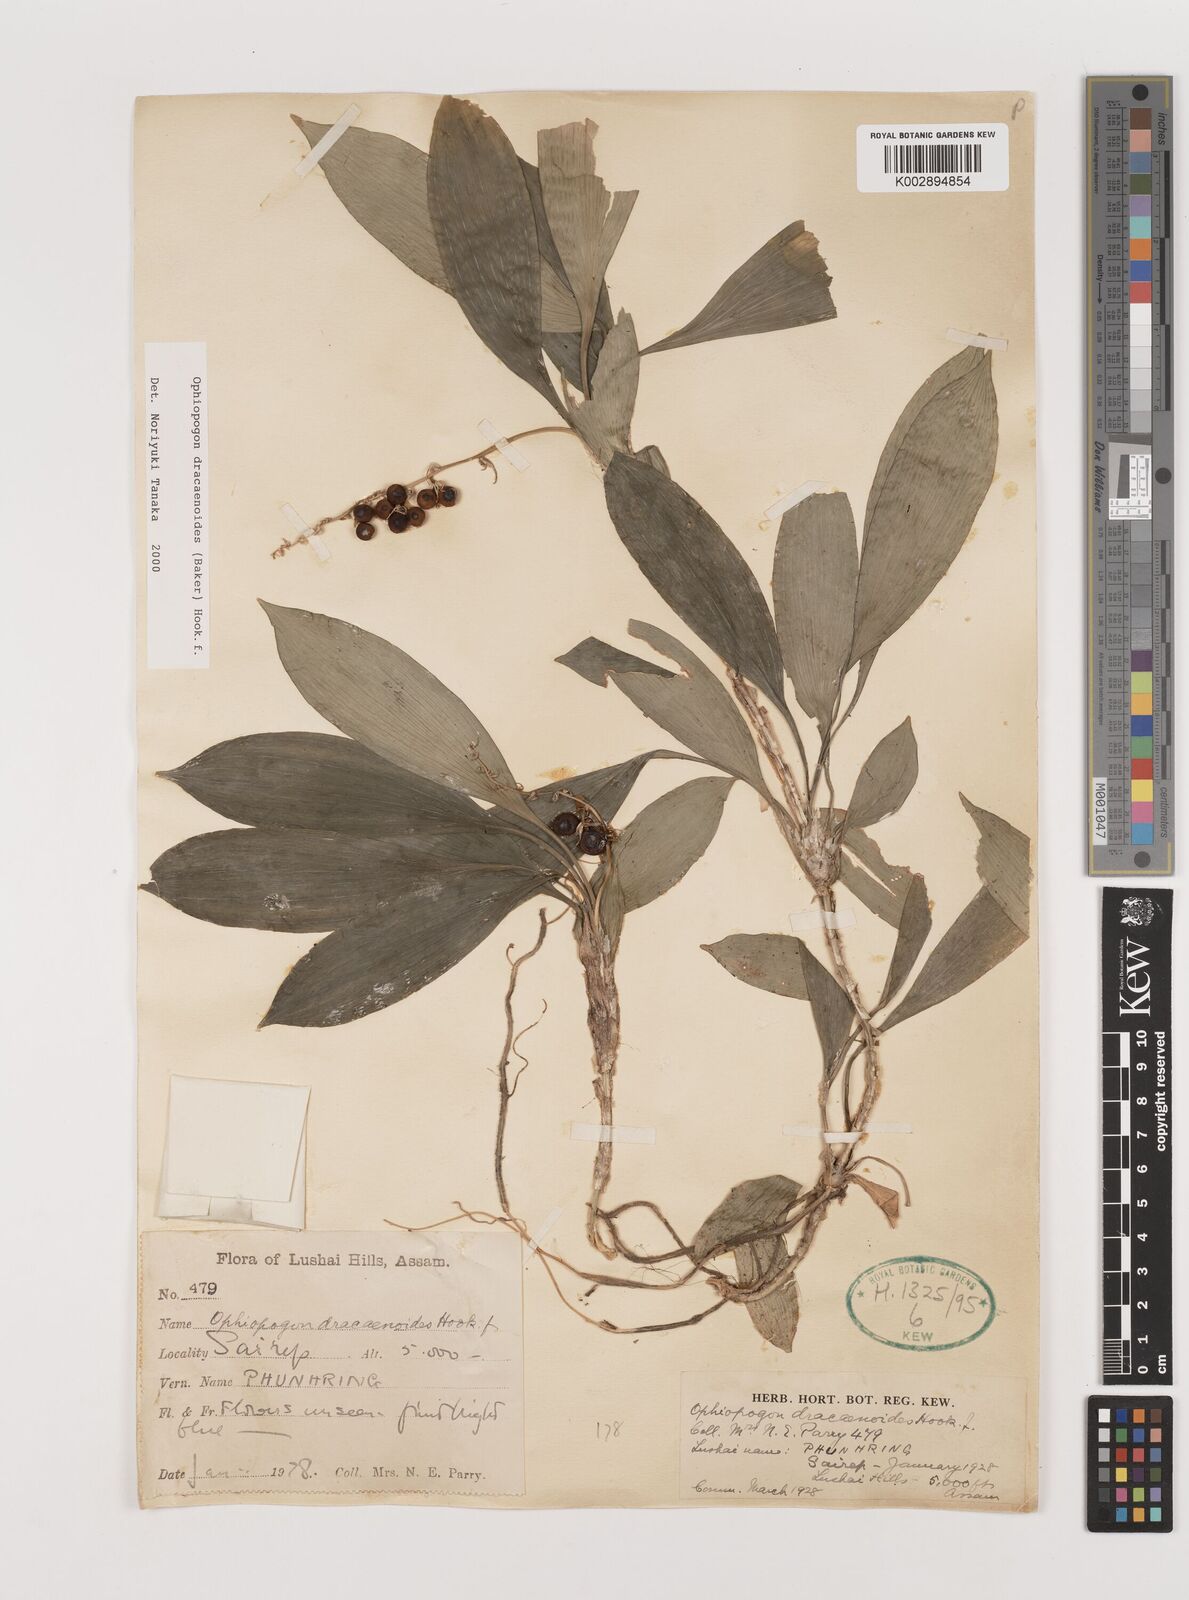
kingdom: Plantae
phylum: Tracheophyta
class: Liliopsida
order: Asparagales
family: Asparagaceae
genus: Ophiopogon
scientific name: Ophiopogon dracaenoides
